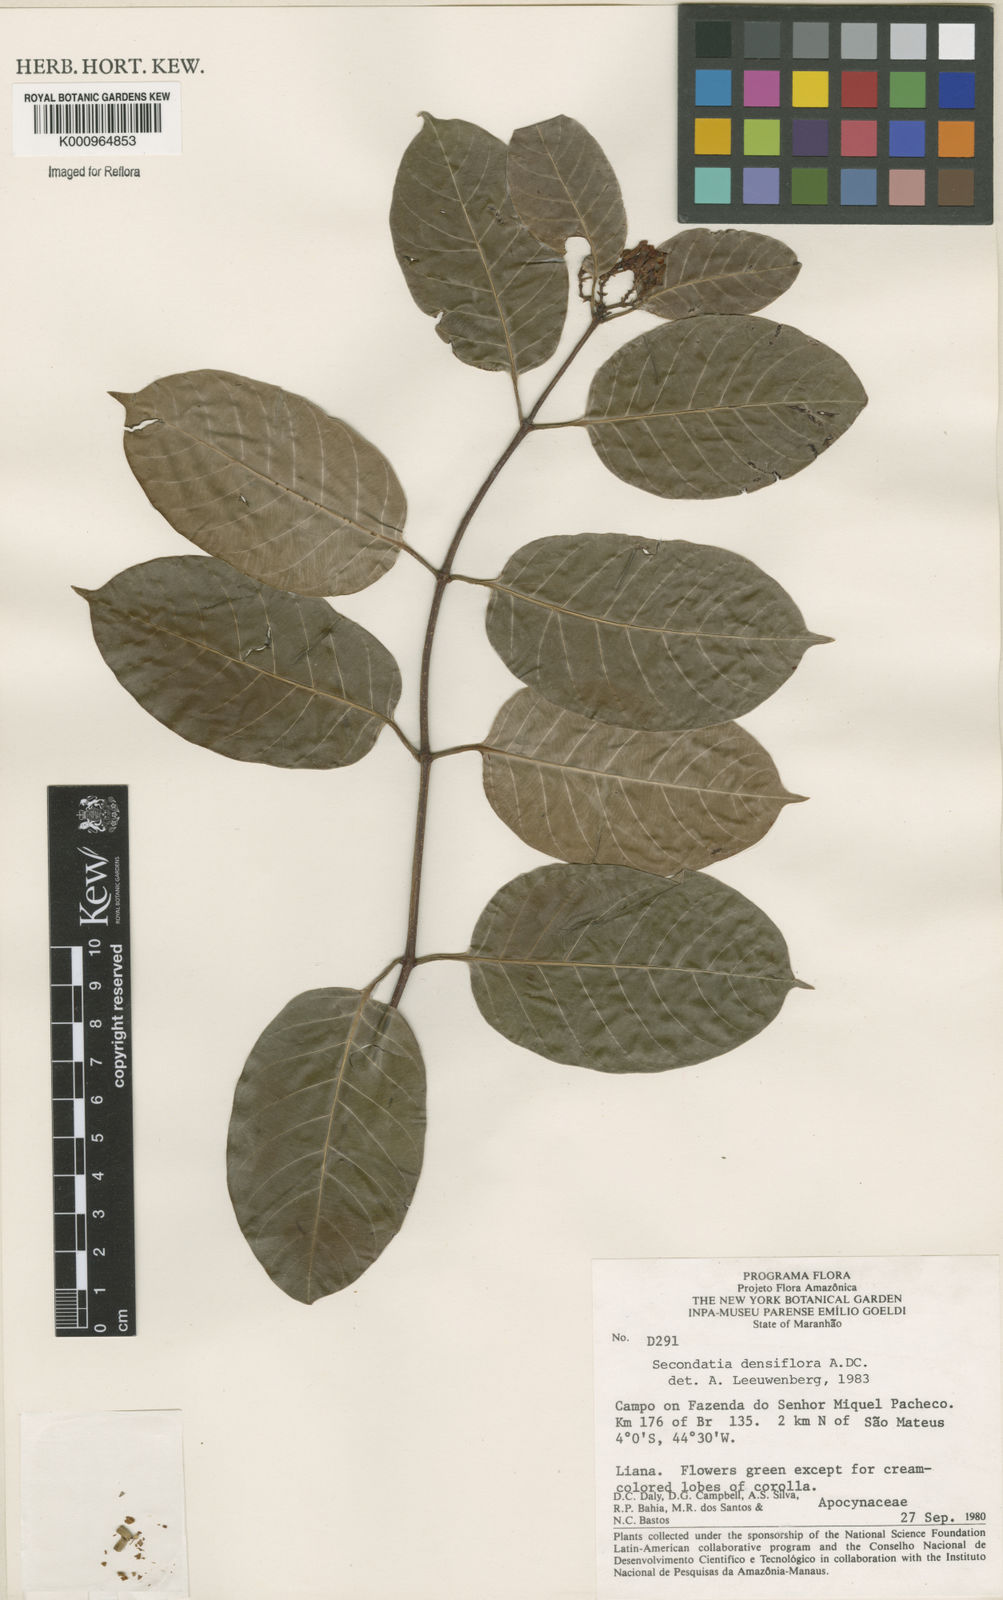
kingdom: Plantae
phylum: Tracheophyta
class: Magnoliopsida
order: Gentianales
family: Apocynaceae
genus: Secondatia
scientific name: Secondatia densiflora
